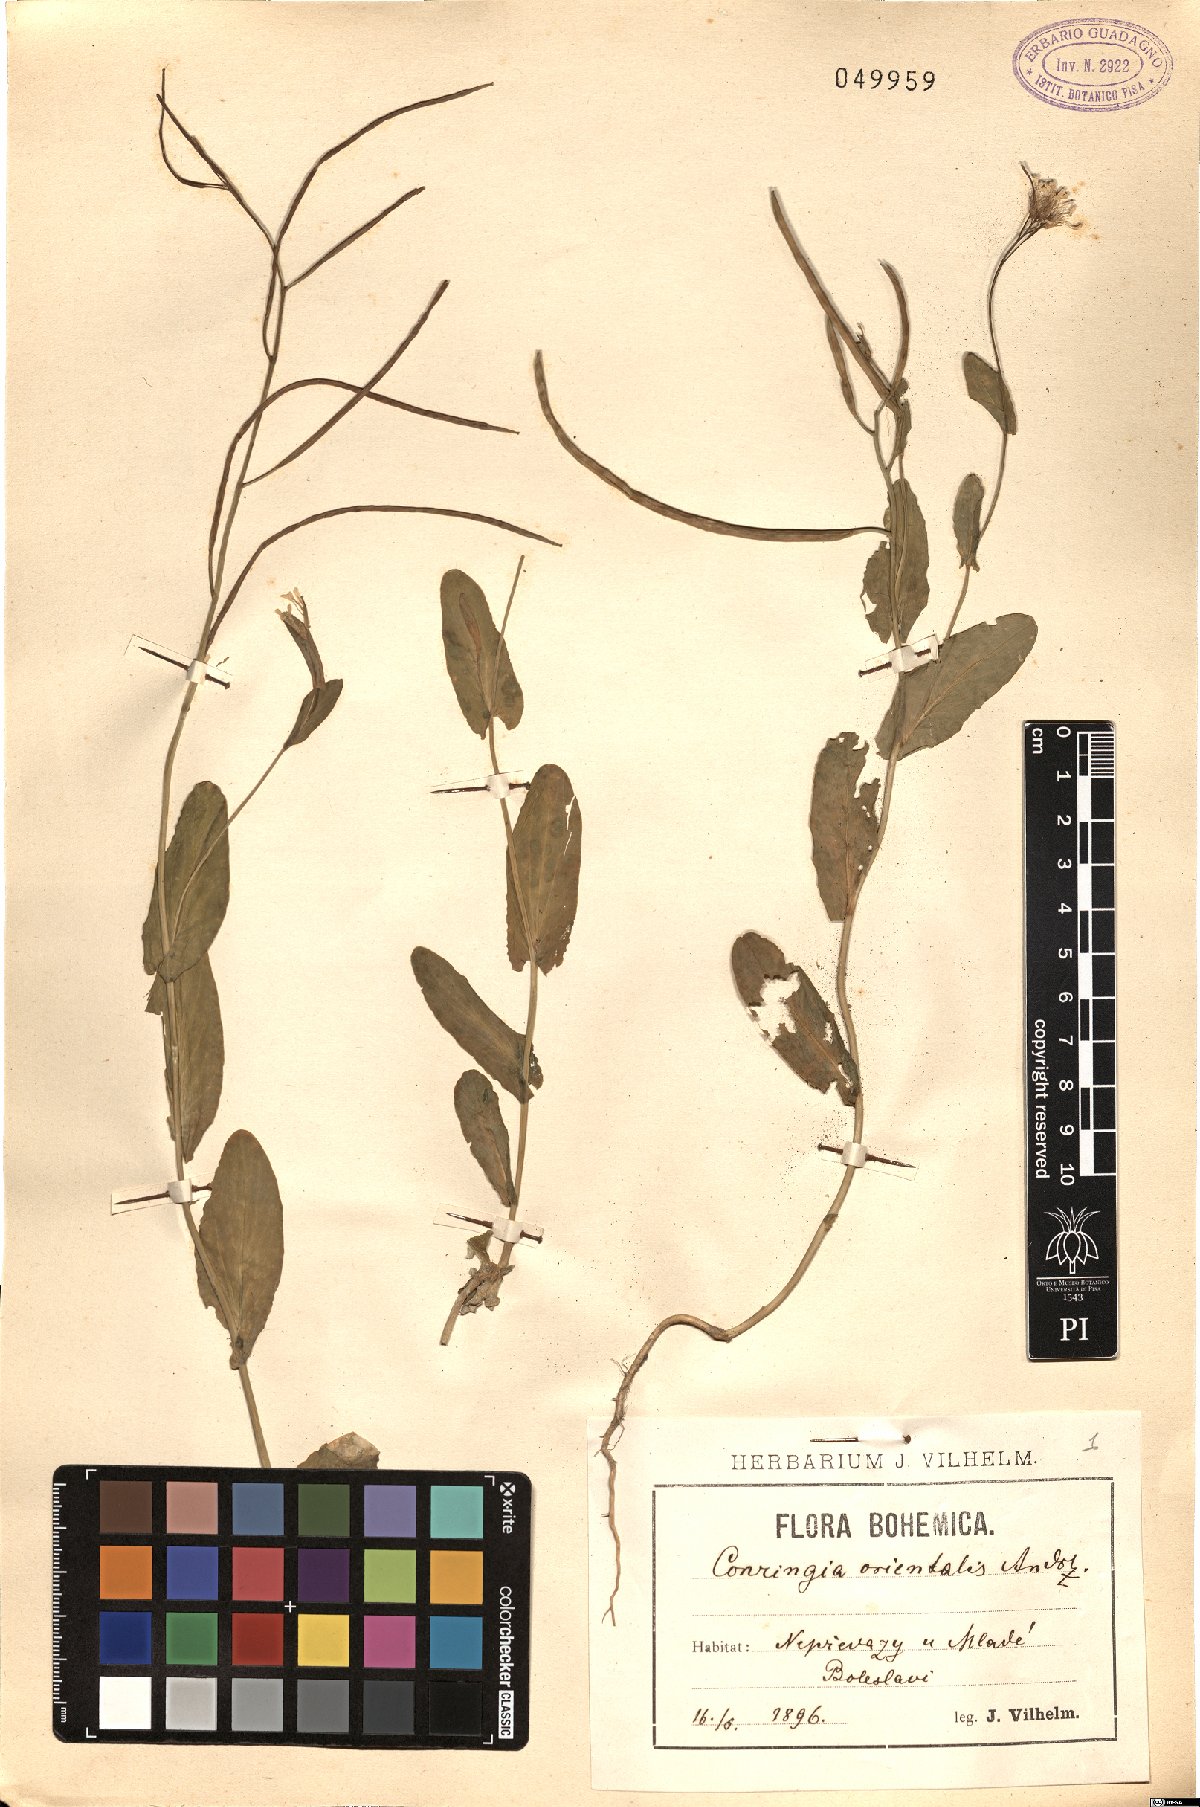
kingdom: Plantae
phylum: Tracheophyta
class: Magnoliopsida
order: Brassicales
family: Brassicaceae
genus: Conringia
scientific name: Conringia orientalis
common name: Hare's ear mustard
